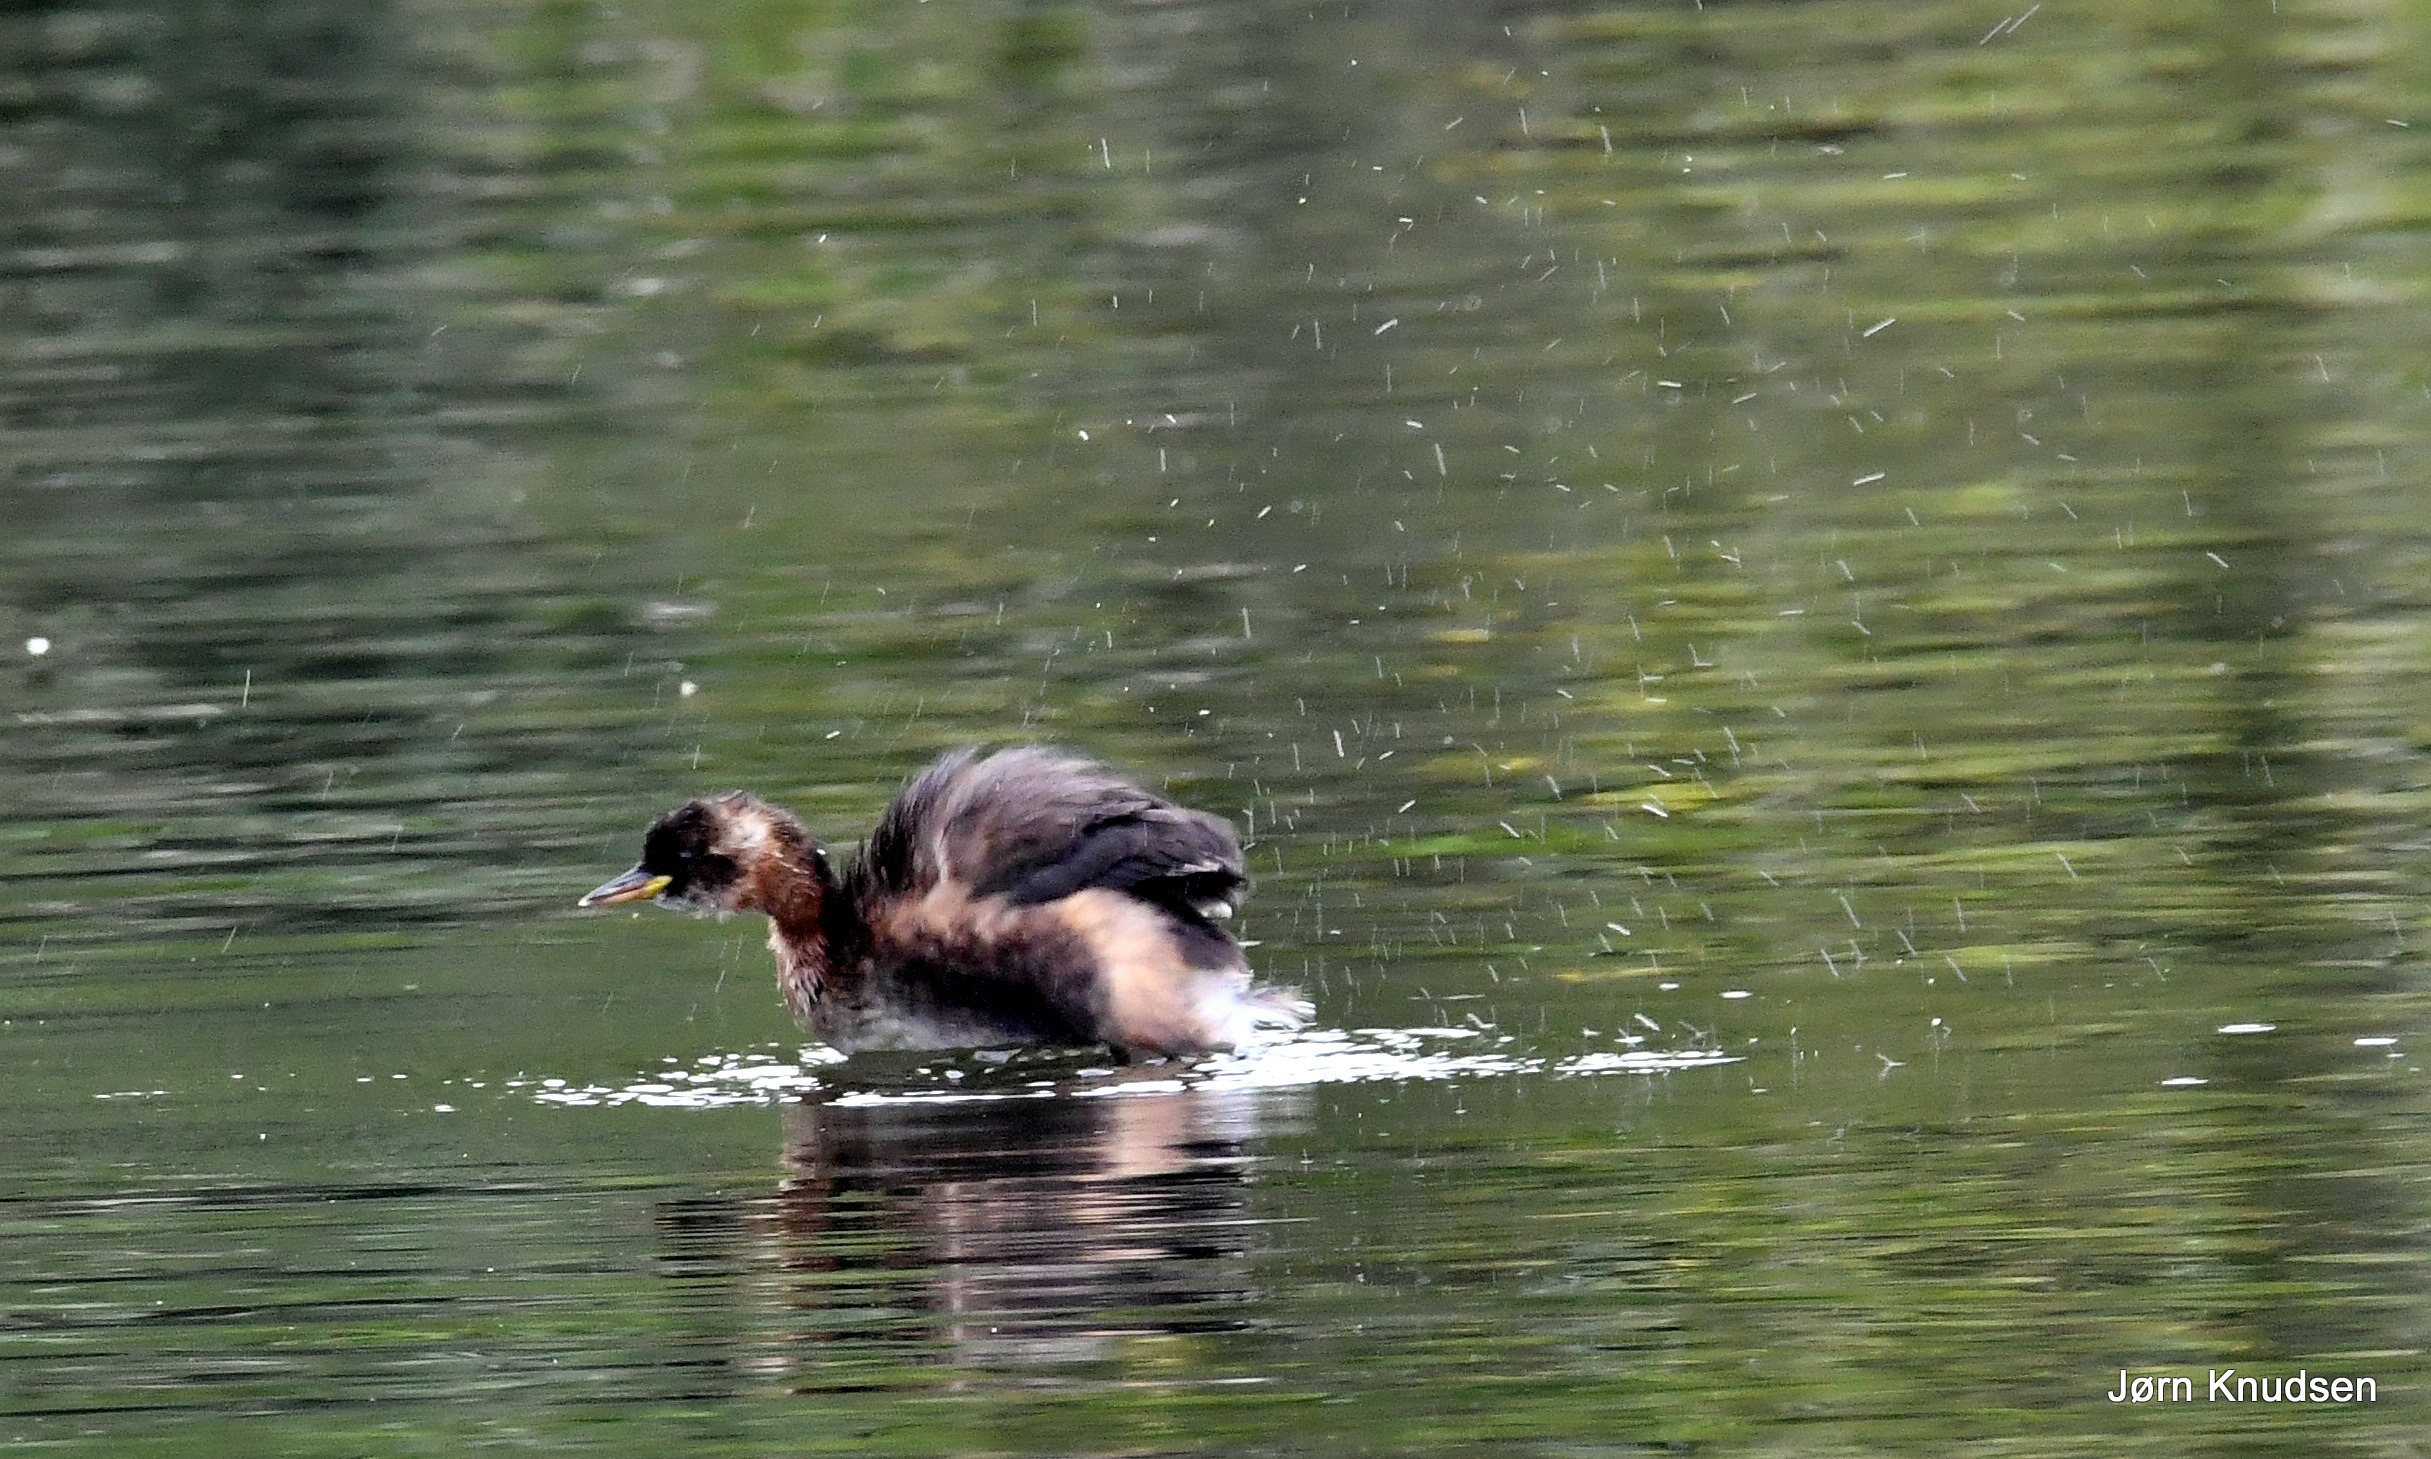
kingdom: Animalia
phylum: Chordata
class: Aves
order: Podicipediformes
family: Podicipedidae
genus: Tachybaptus
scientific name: Tachybaptus ruficollis
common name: Lille lappedykker
